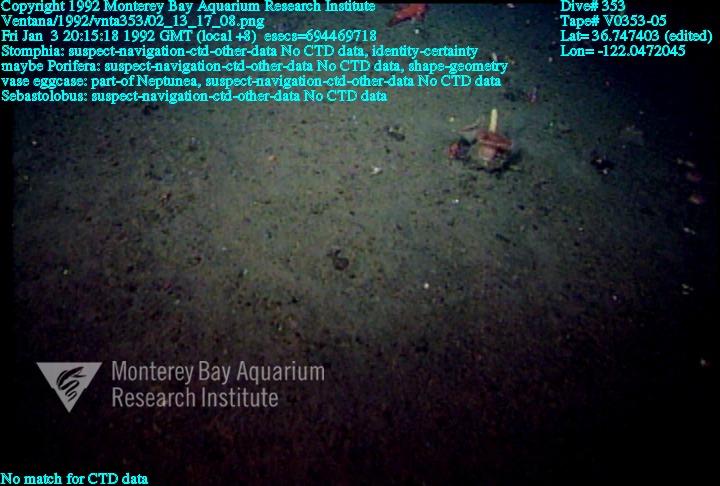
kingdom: Animalia
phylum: Porifera
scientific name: Porifera
